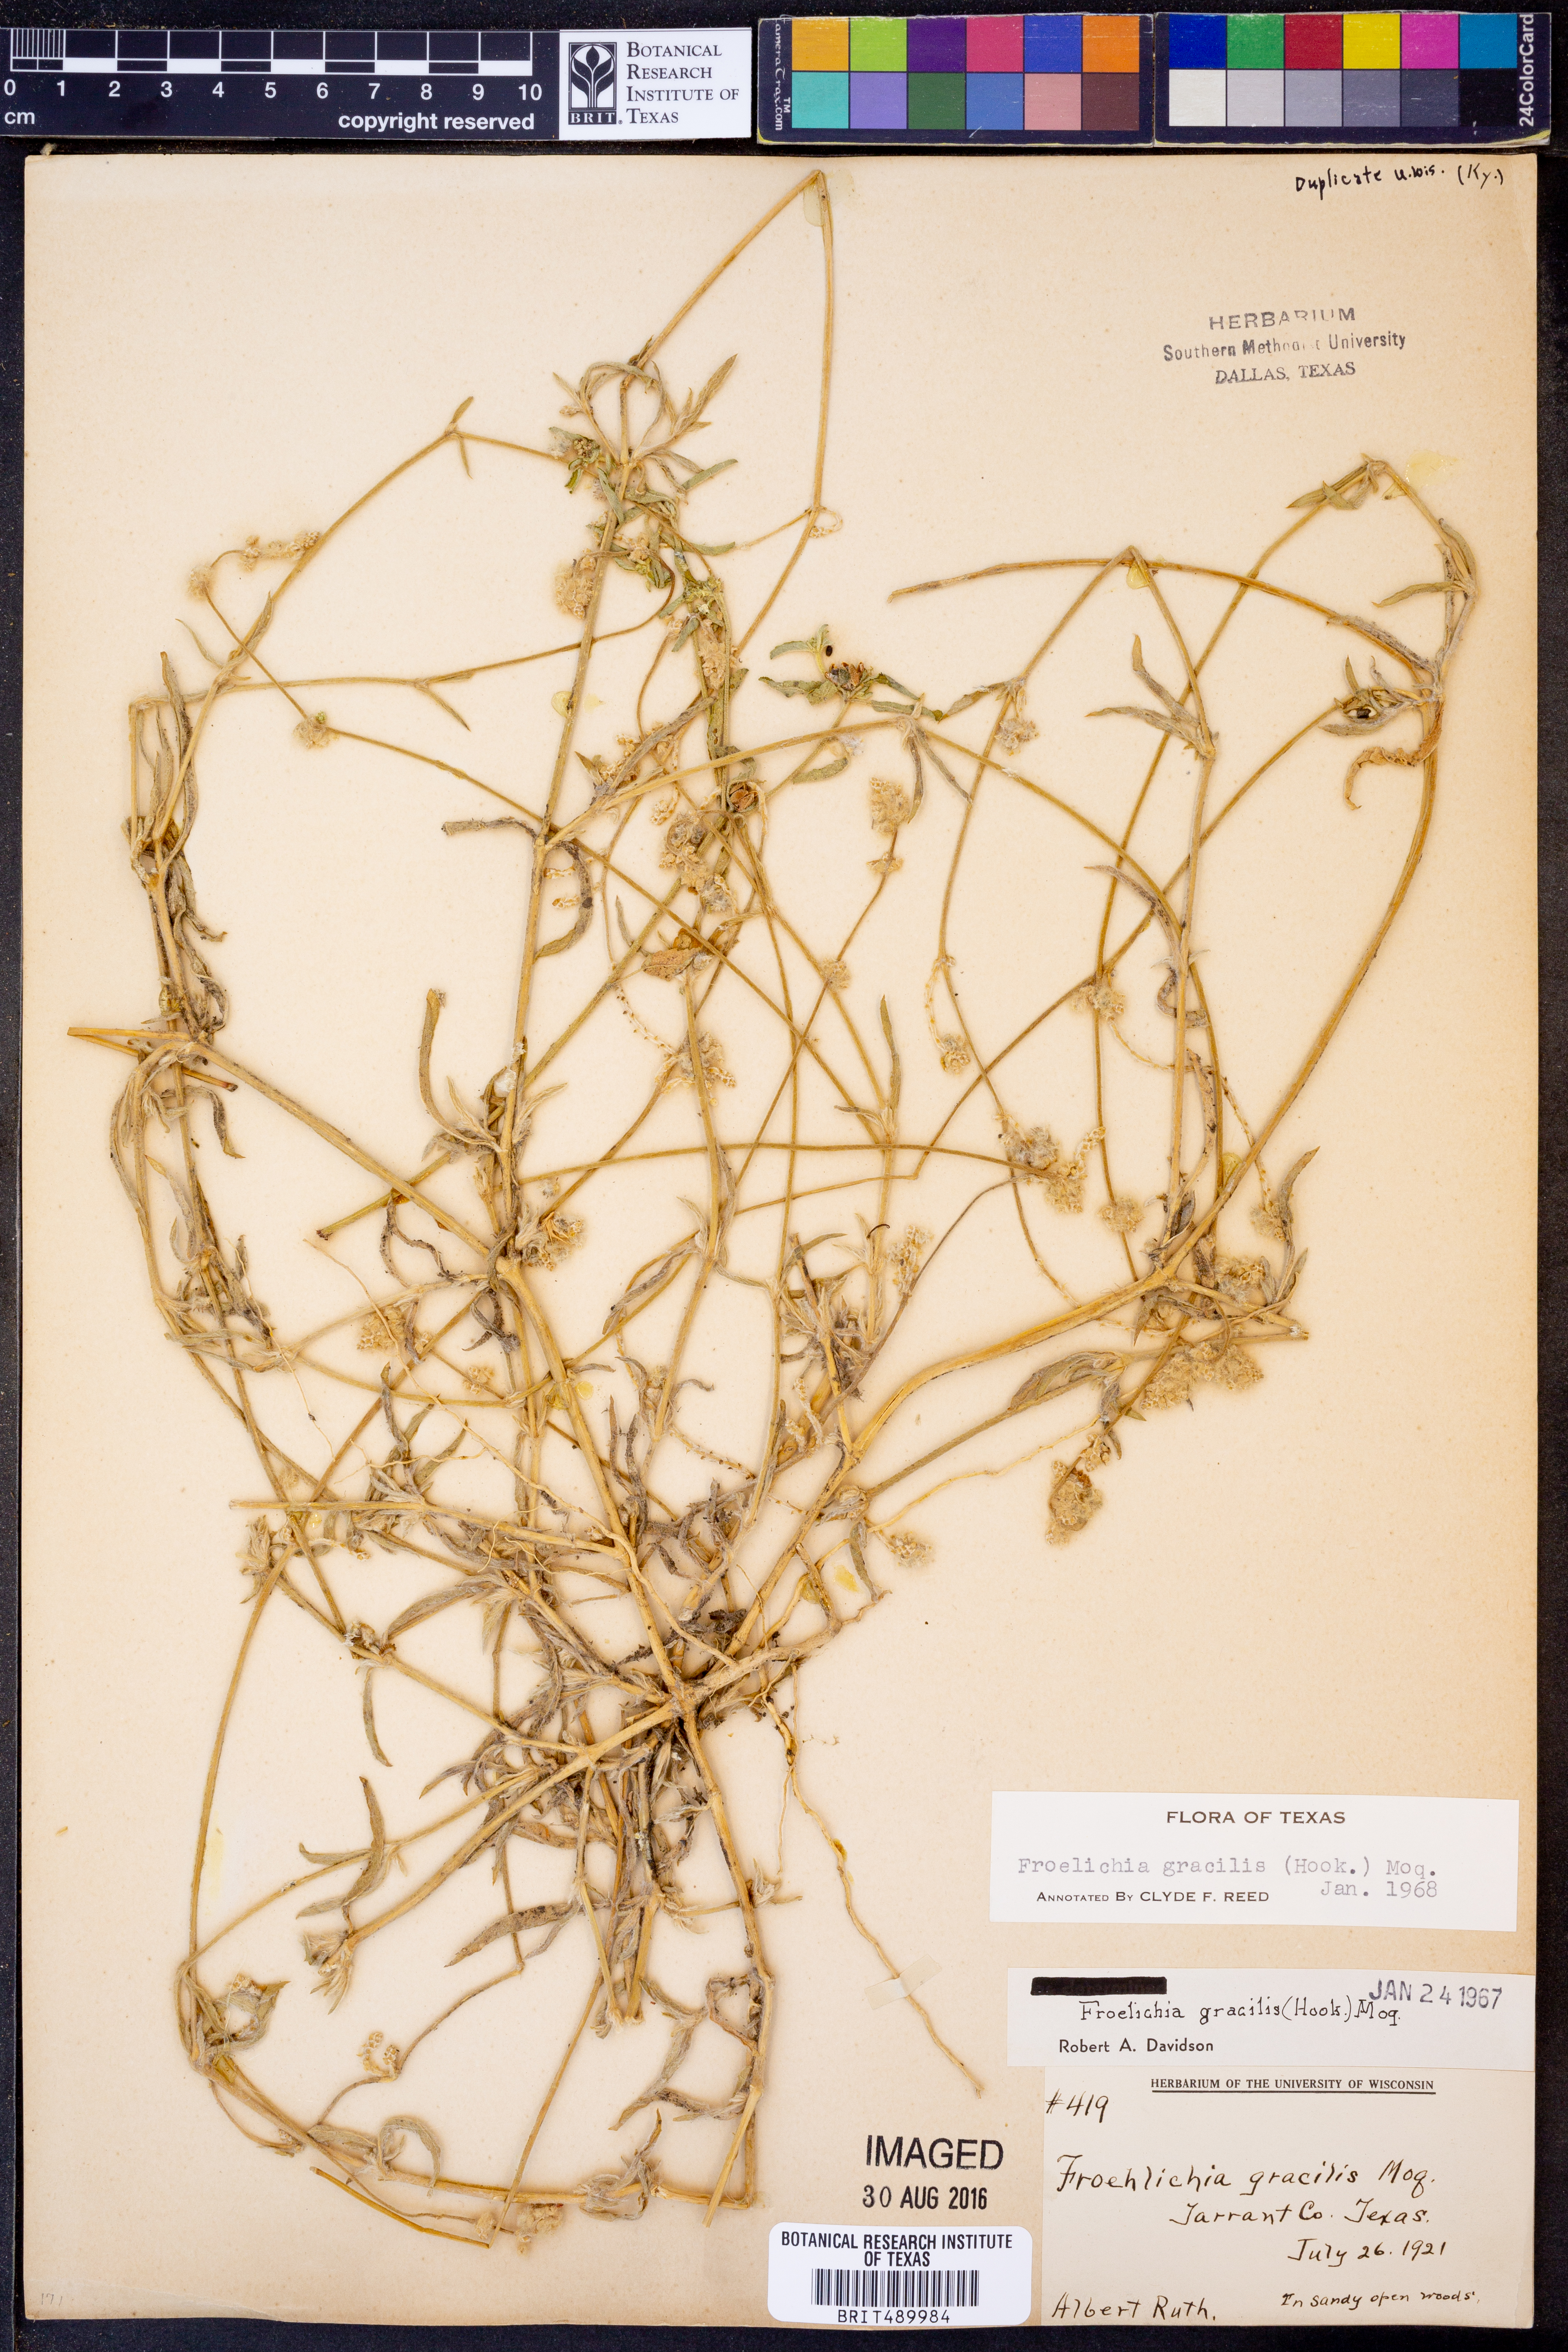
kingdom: Plantae
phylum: Tracheophyta
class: Magnoliopsida
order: Caryophyllales
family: Amaranthaceae
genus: Froelichia
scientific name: Froelichia gracilis
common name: Slender cottonweed
